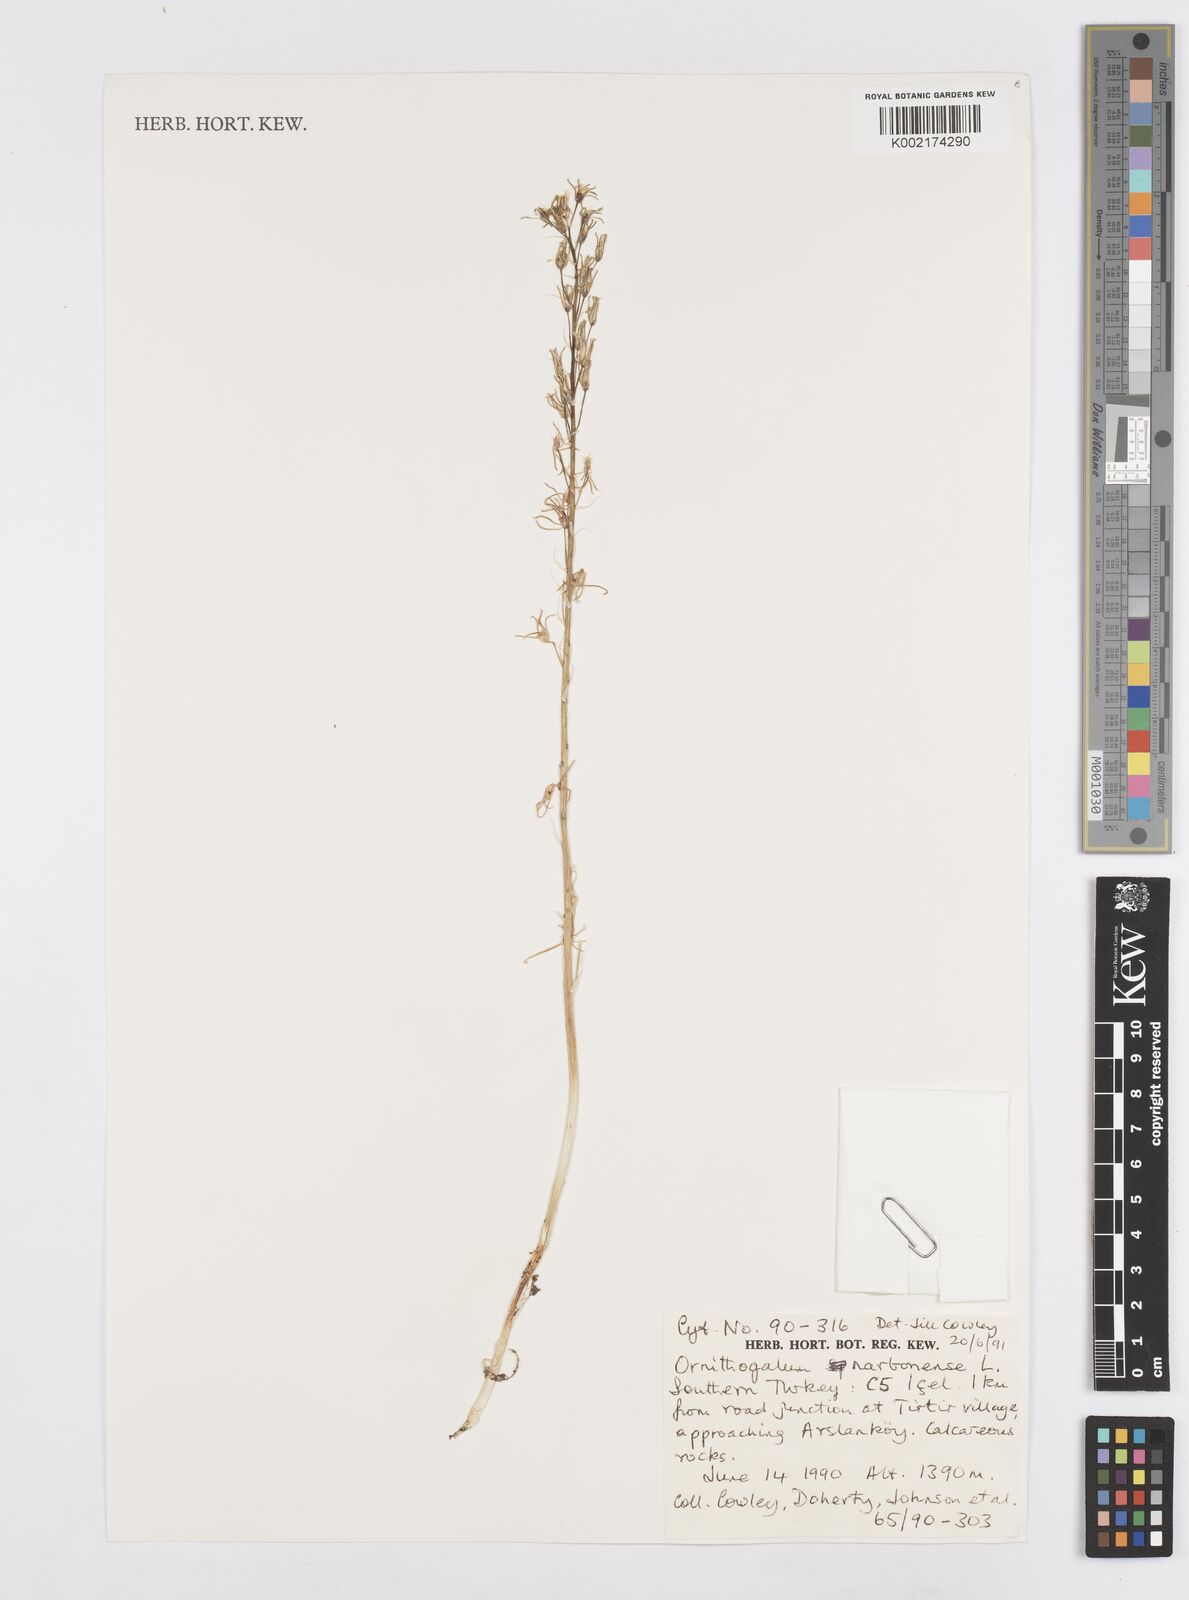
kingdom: Plantae
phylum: Tracheophyta
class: Liliopsida
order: Asparagales
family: Asparagaceae
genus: Ornithogalum
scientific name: Ornithogalum narbonense
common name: Bath-asparagus
